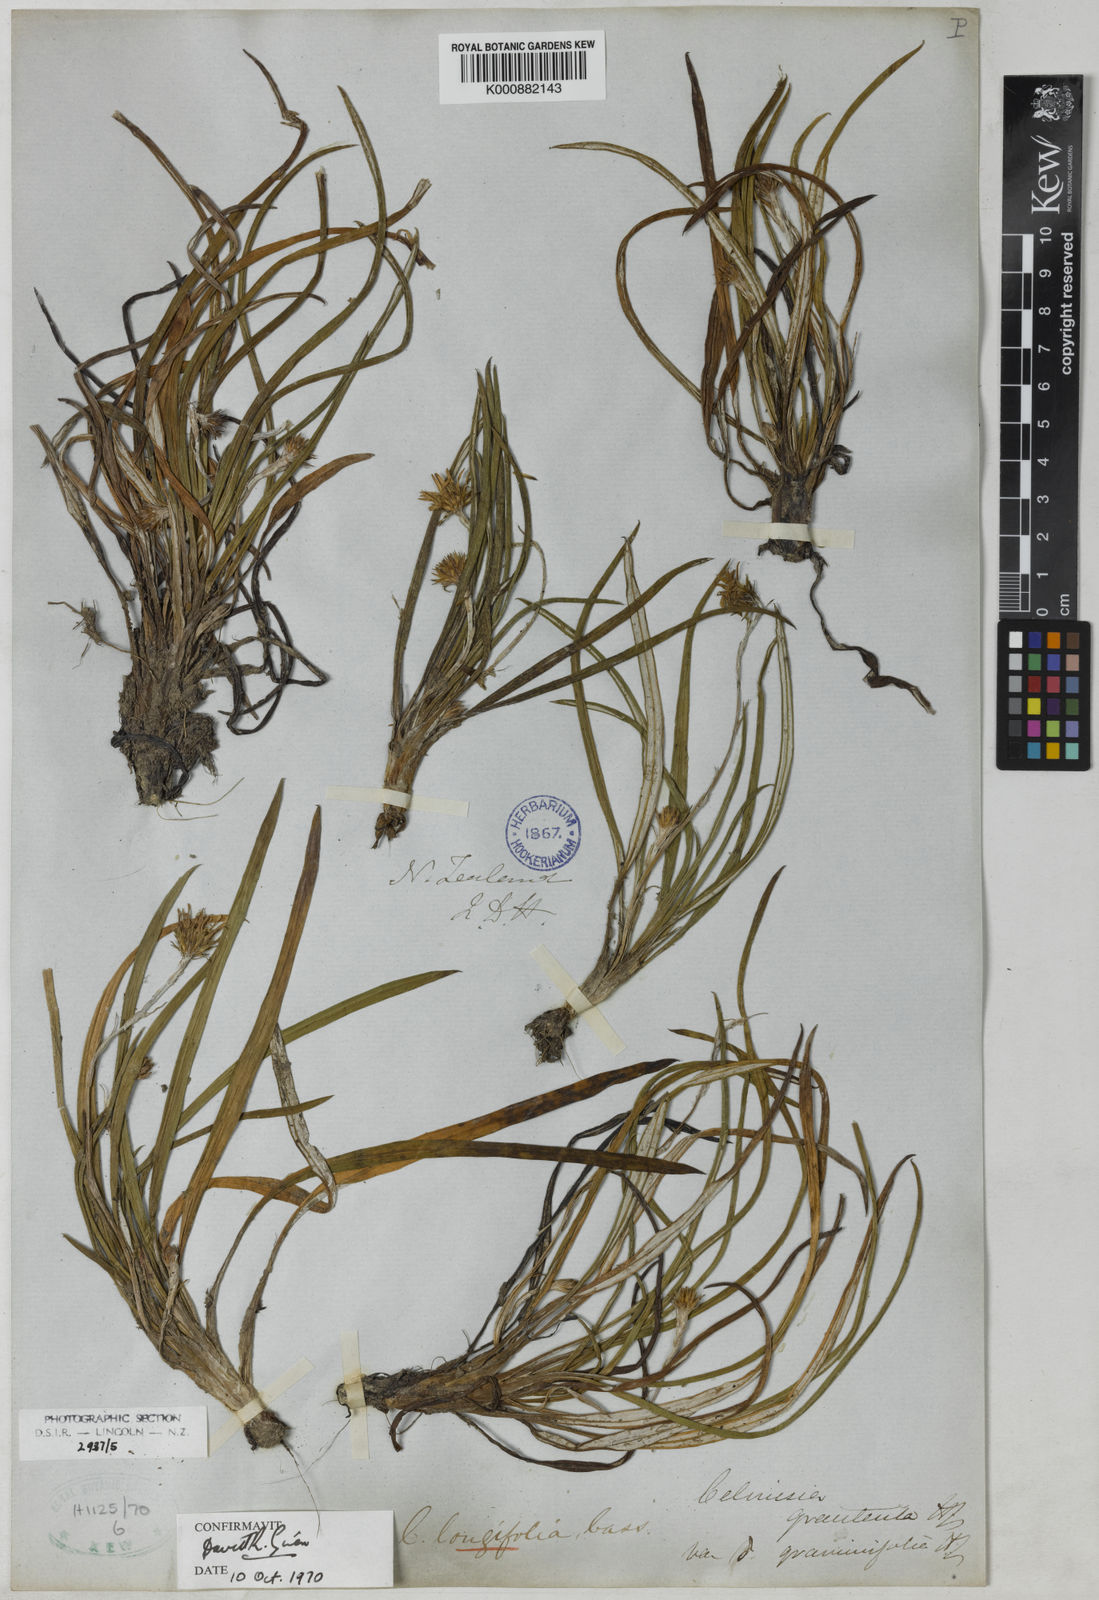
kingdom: Plantae
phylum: Tracheophyta
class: Magnoliopsida
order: Asterales
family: Asteraceae
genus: Celmisia
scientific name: Celmisia graminifolia
